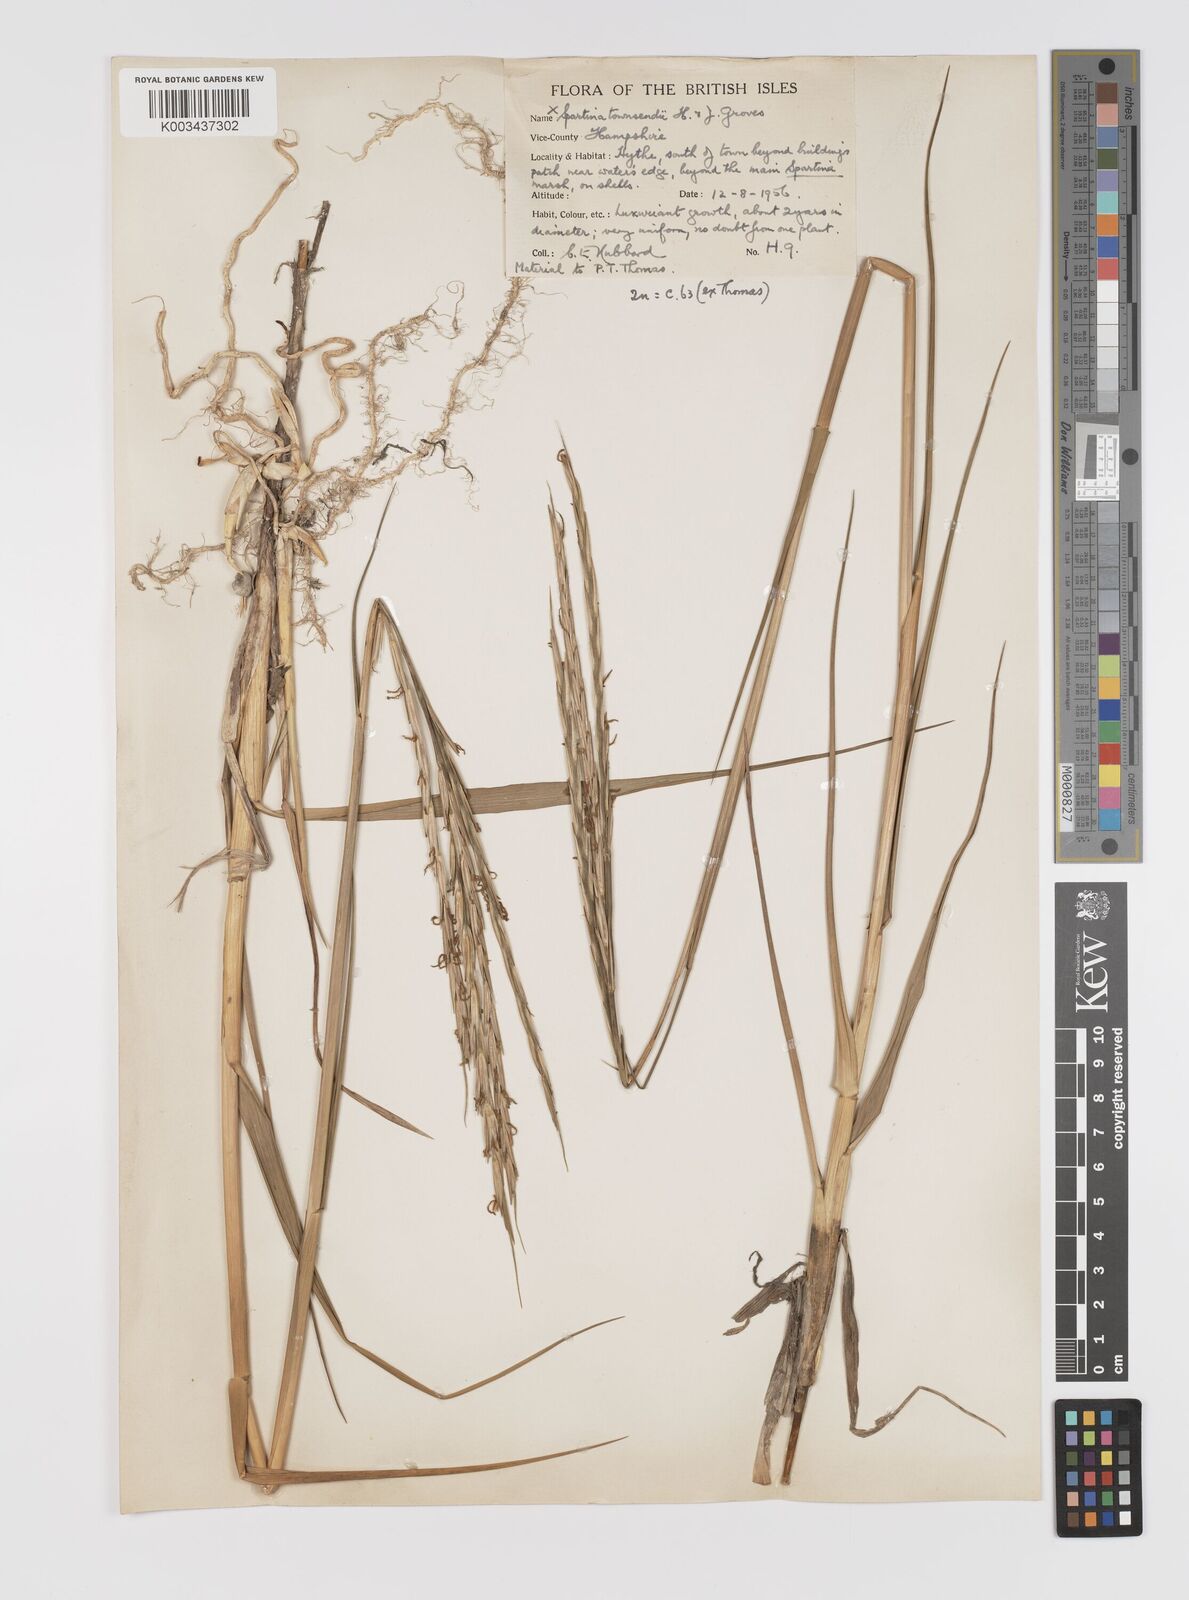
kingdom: Plantae
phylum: Tracheophyta
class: Liliopsida
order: Poales
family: Poaceae
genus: Sporobolus
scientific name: Sporobolus townsendii
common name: Townsend's cordgrass
